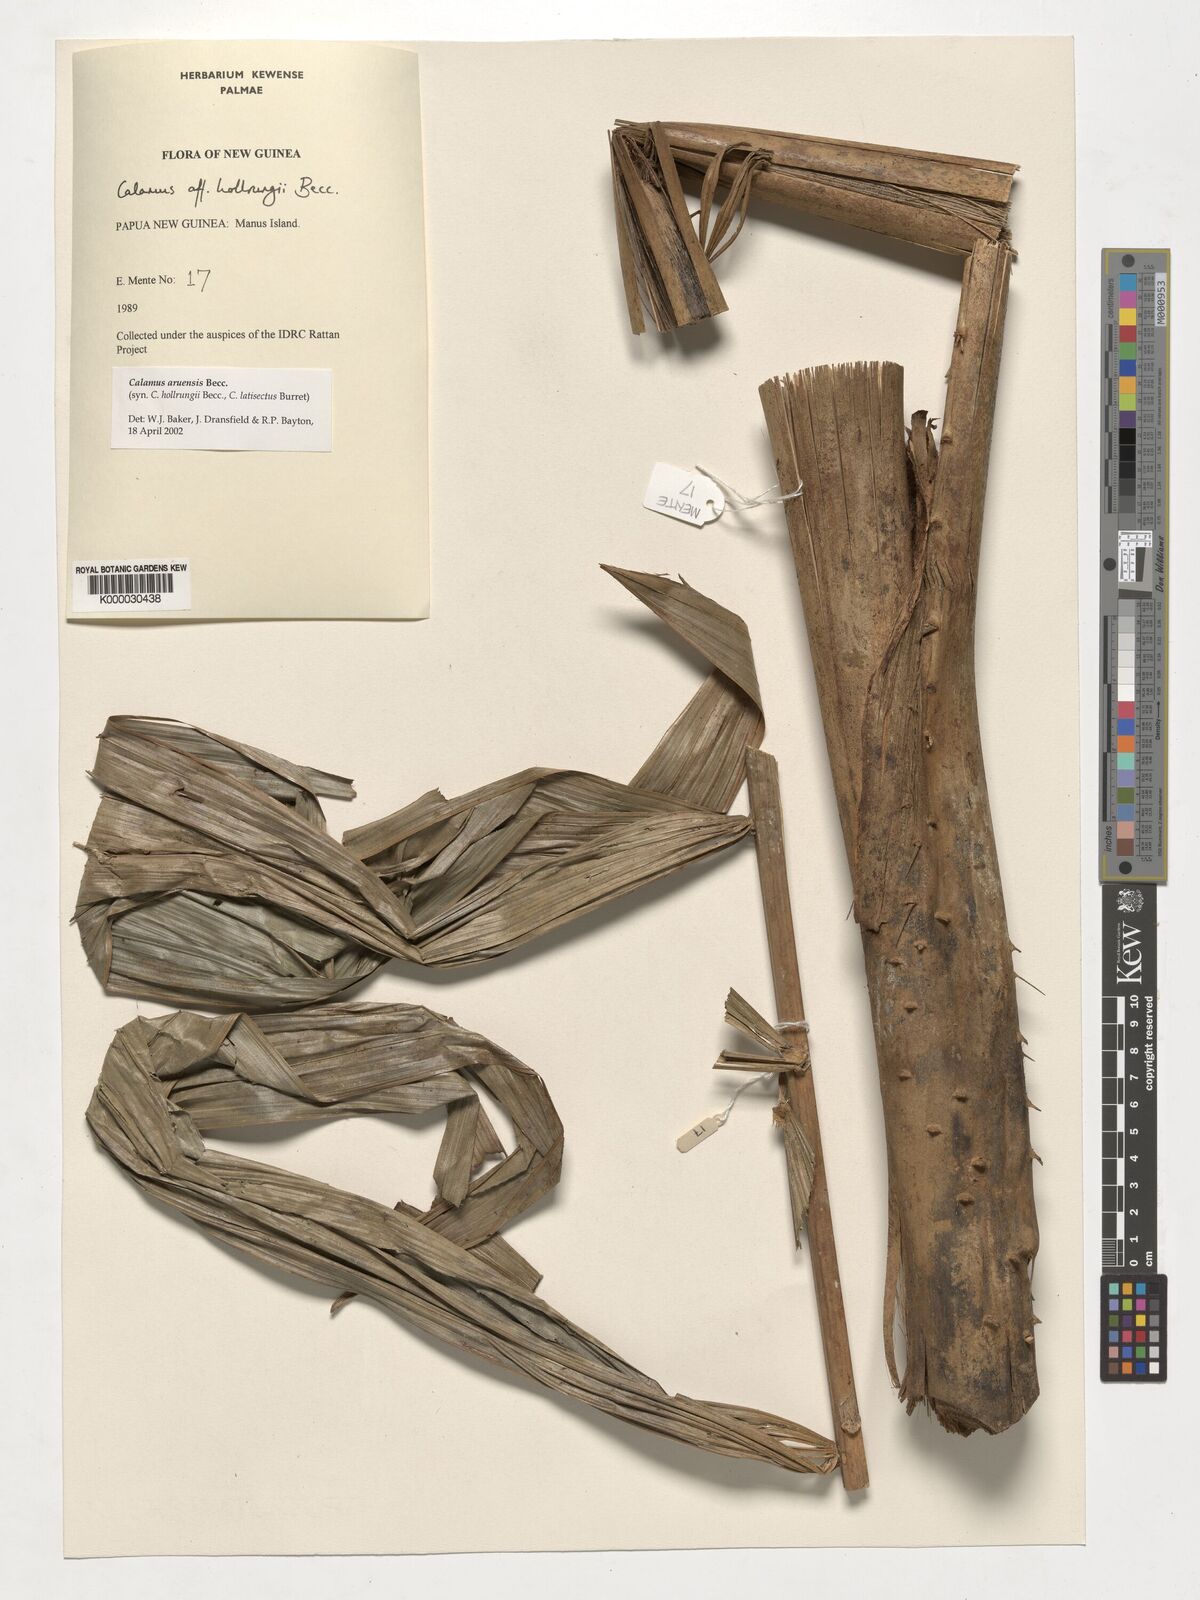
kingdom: Plantae
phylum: Tracheophyta
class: Liliopsida
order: Arecales
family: Arecaceae
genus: Calamus
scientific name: Calamus aruensis
